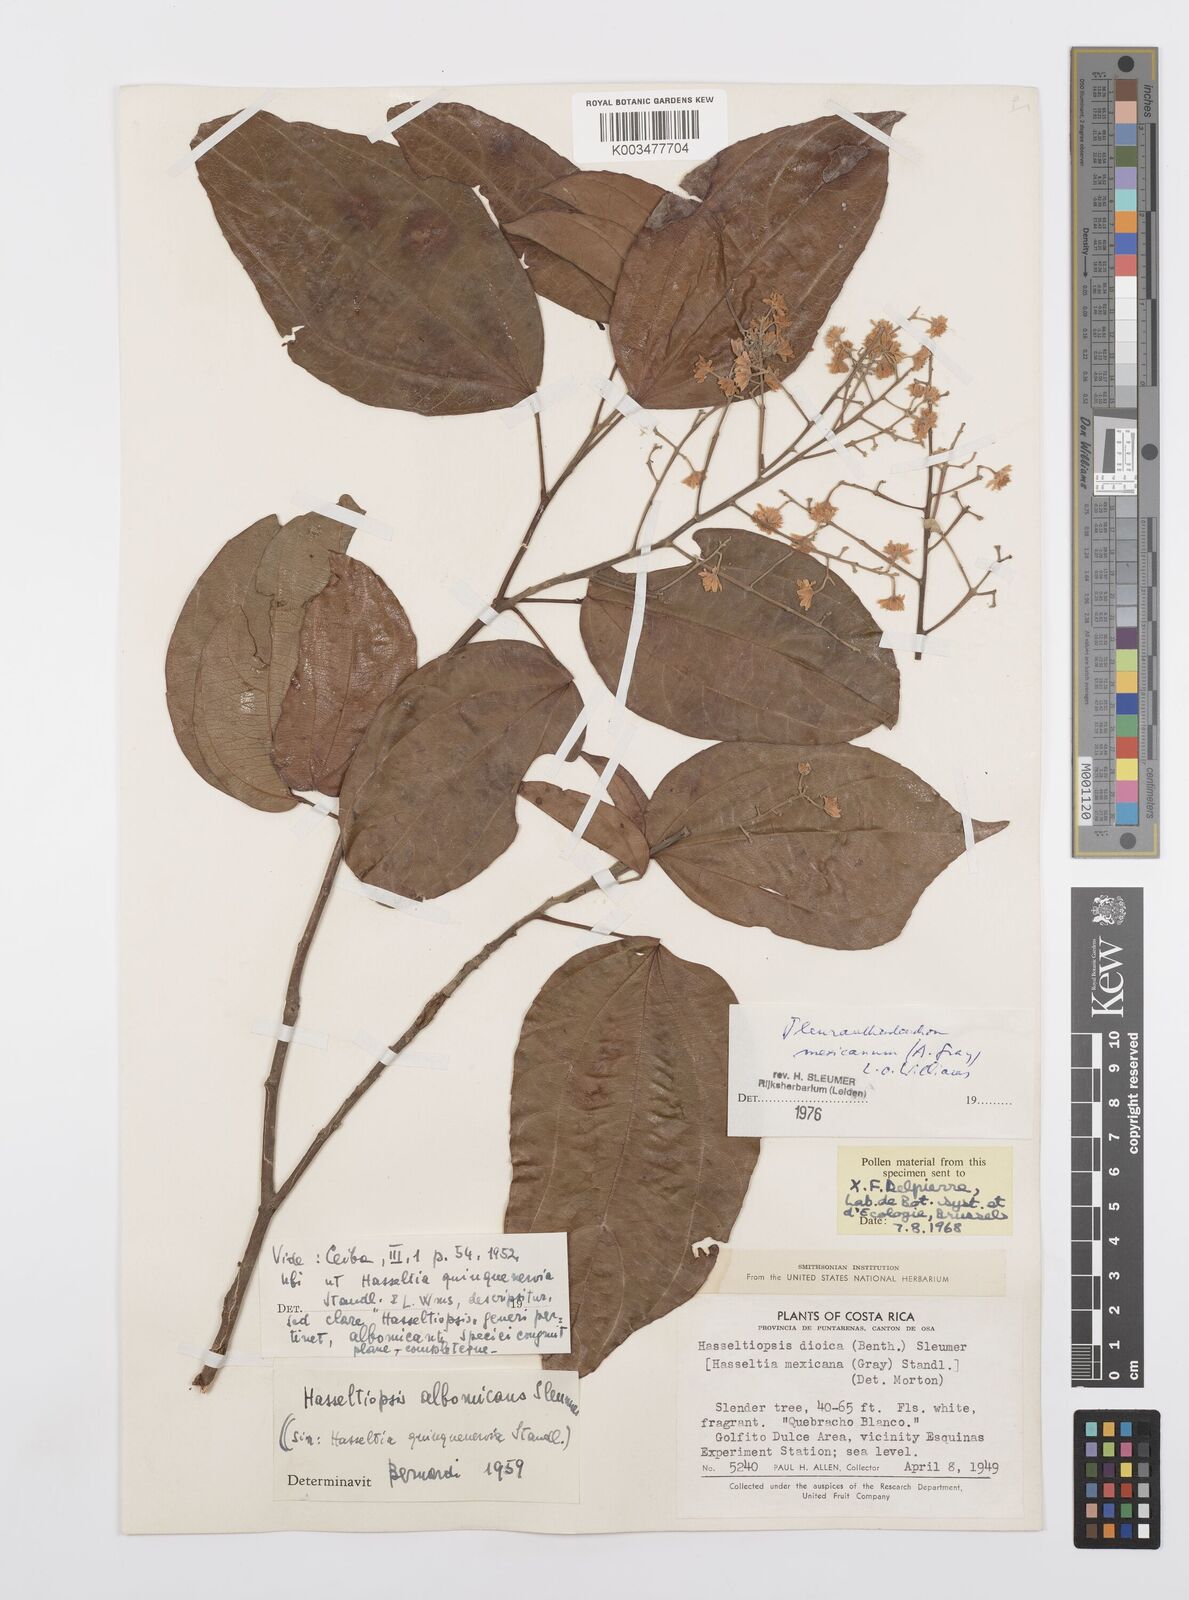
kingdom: Plantae
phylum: Tracheophyta
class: Magnoliopsida
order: Malpighiales
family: Salicaceae
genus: Pleuranthodendron
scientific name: Pleuranthodendron lindenii
